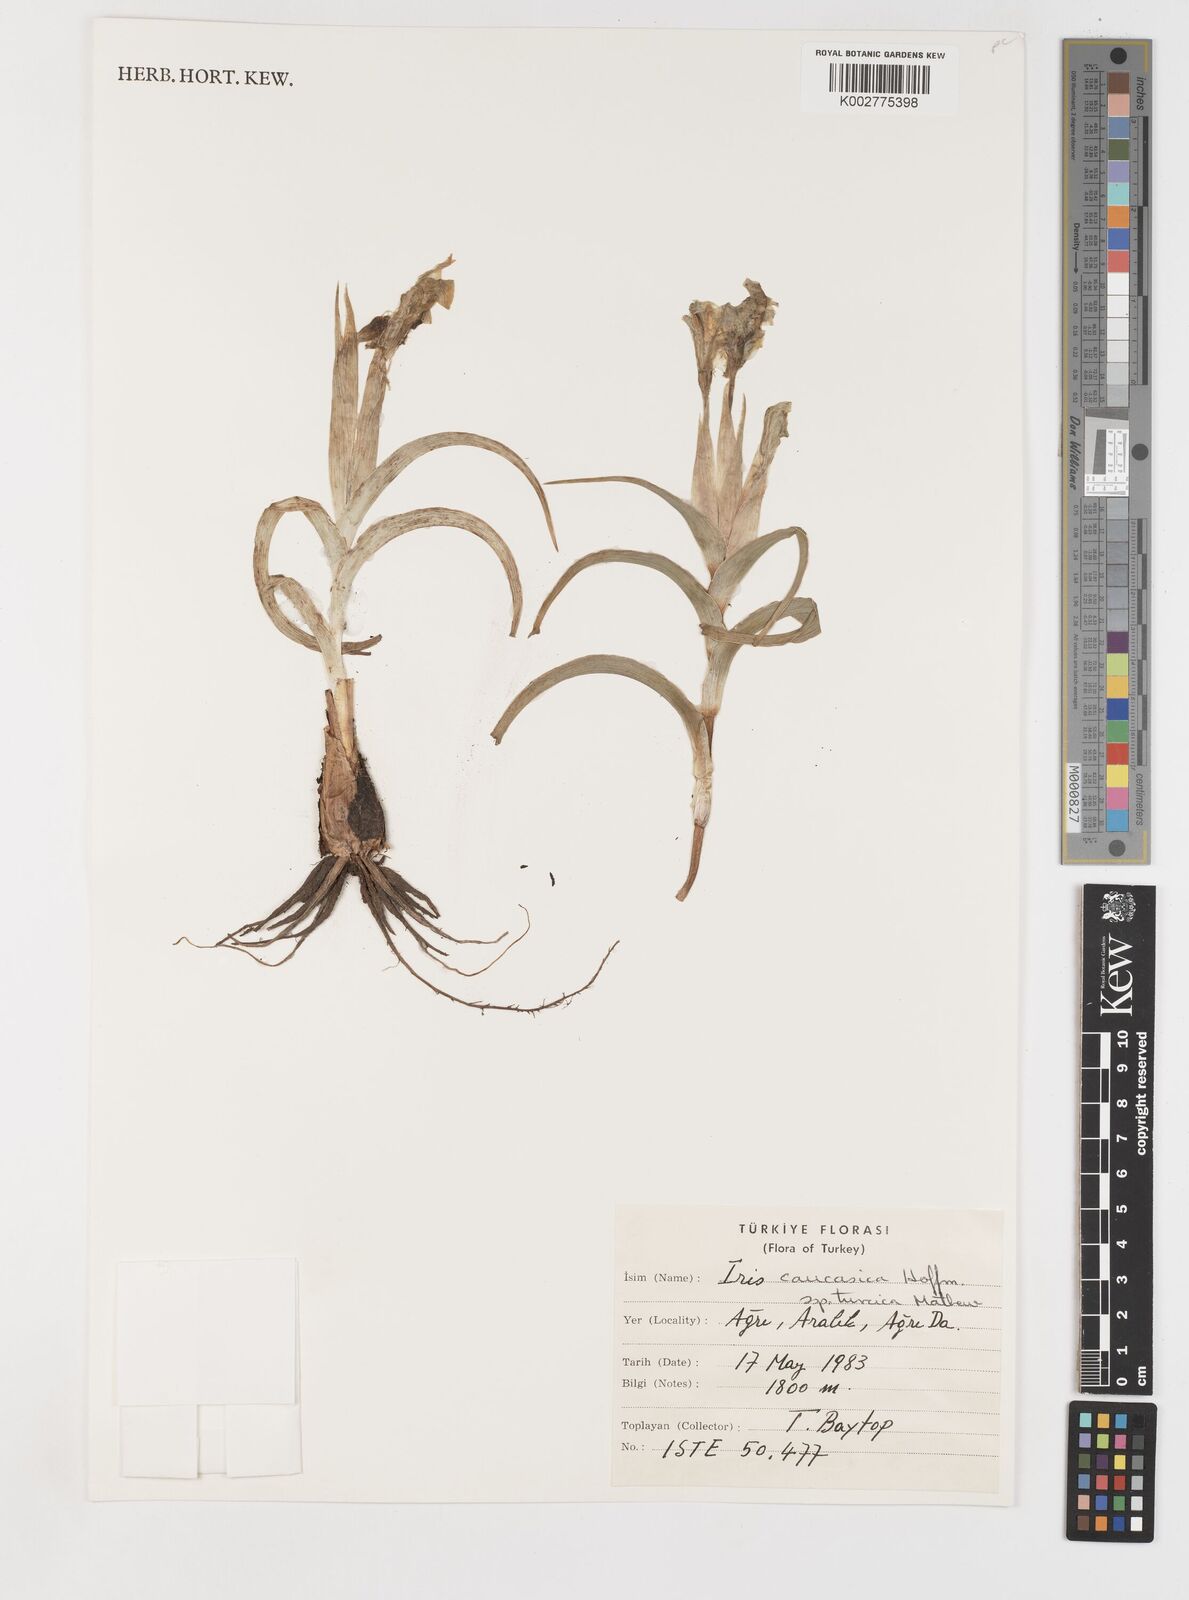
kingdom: Plantae
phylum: Tracheophyta
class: Liliopsida
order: Asparagales
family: Iridaceae
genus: Iris
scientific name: Iris caucasica
